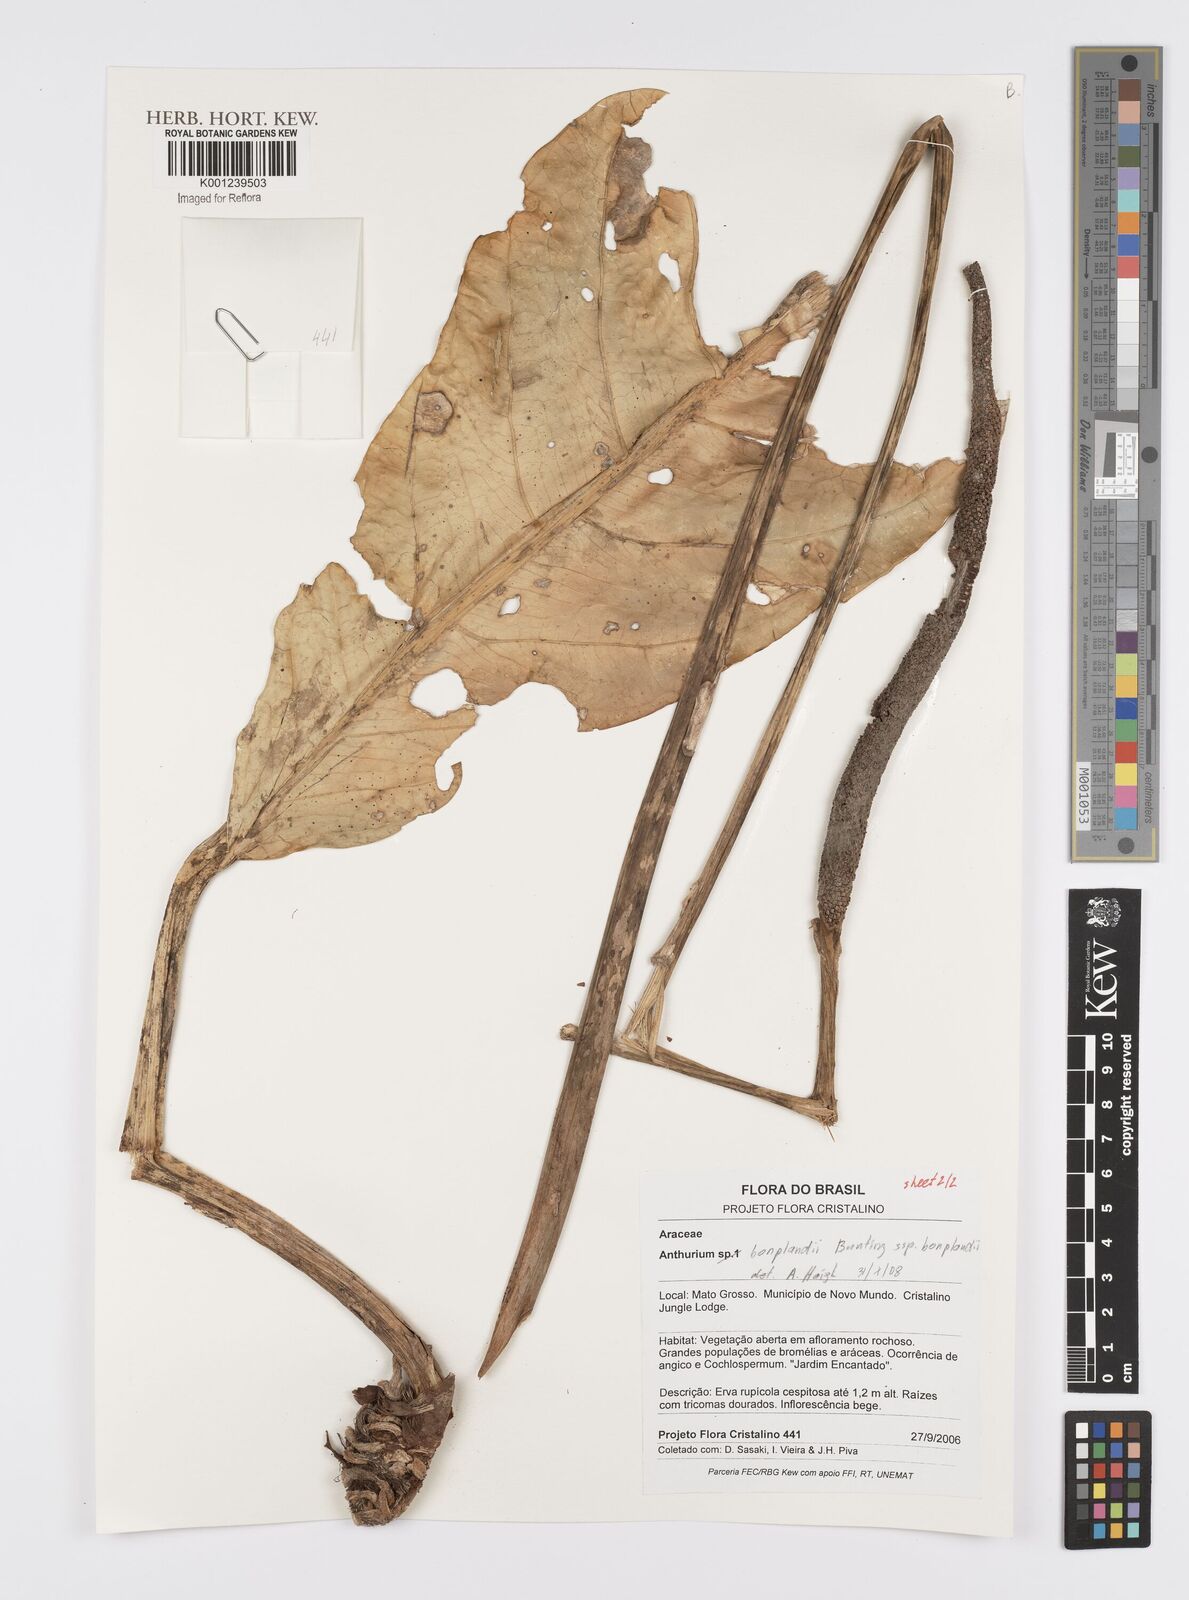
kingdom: Plantae
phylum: Tracheophyta
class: Liliopsida
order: Alismatales
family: Araceae
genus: Anthurium
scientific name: Anthurium bonplandii
